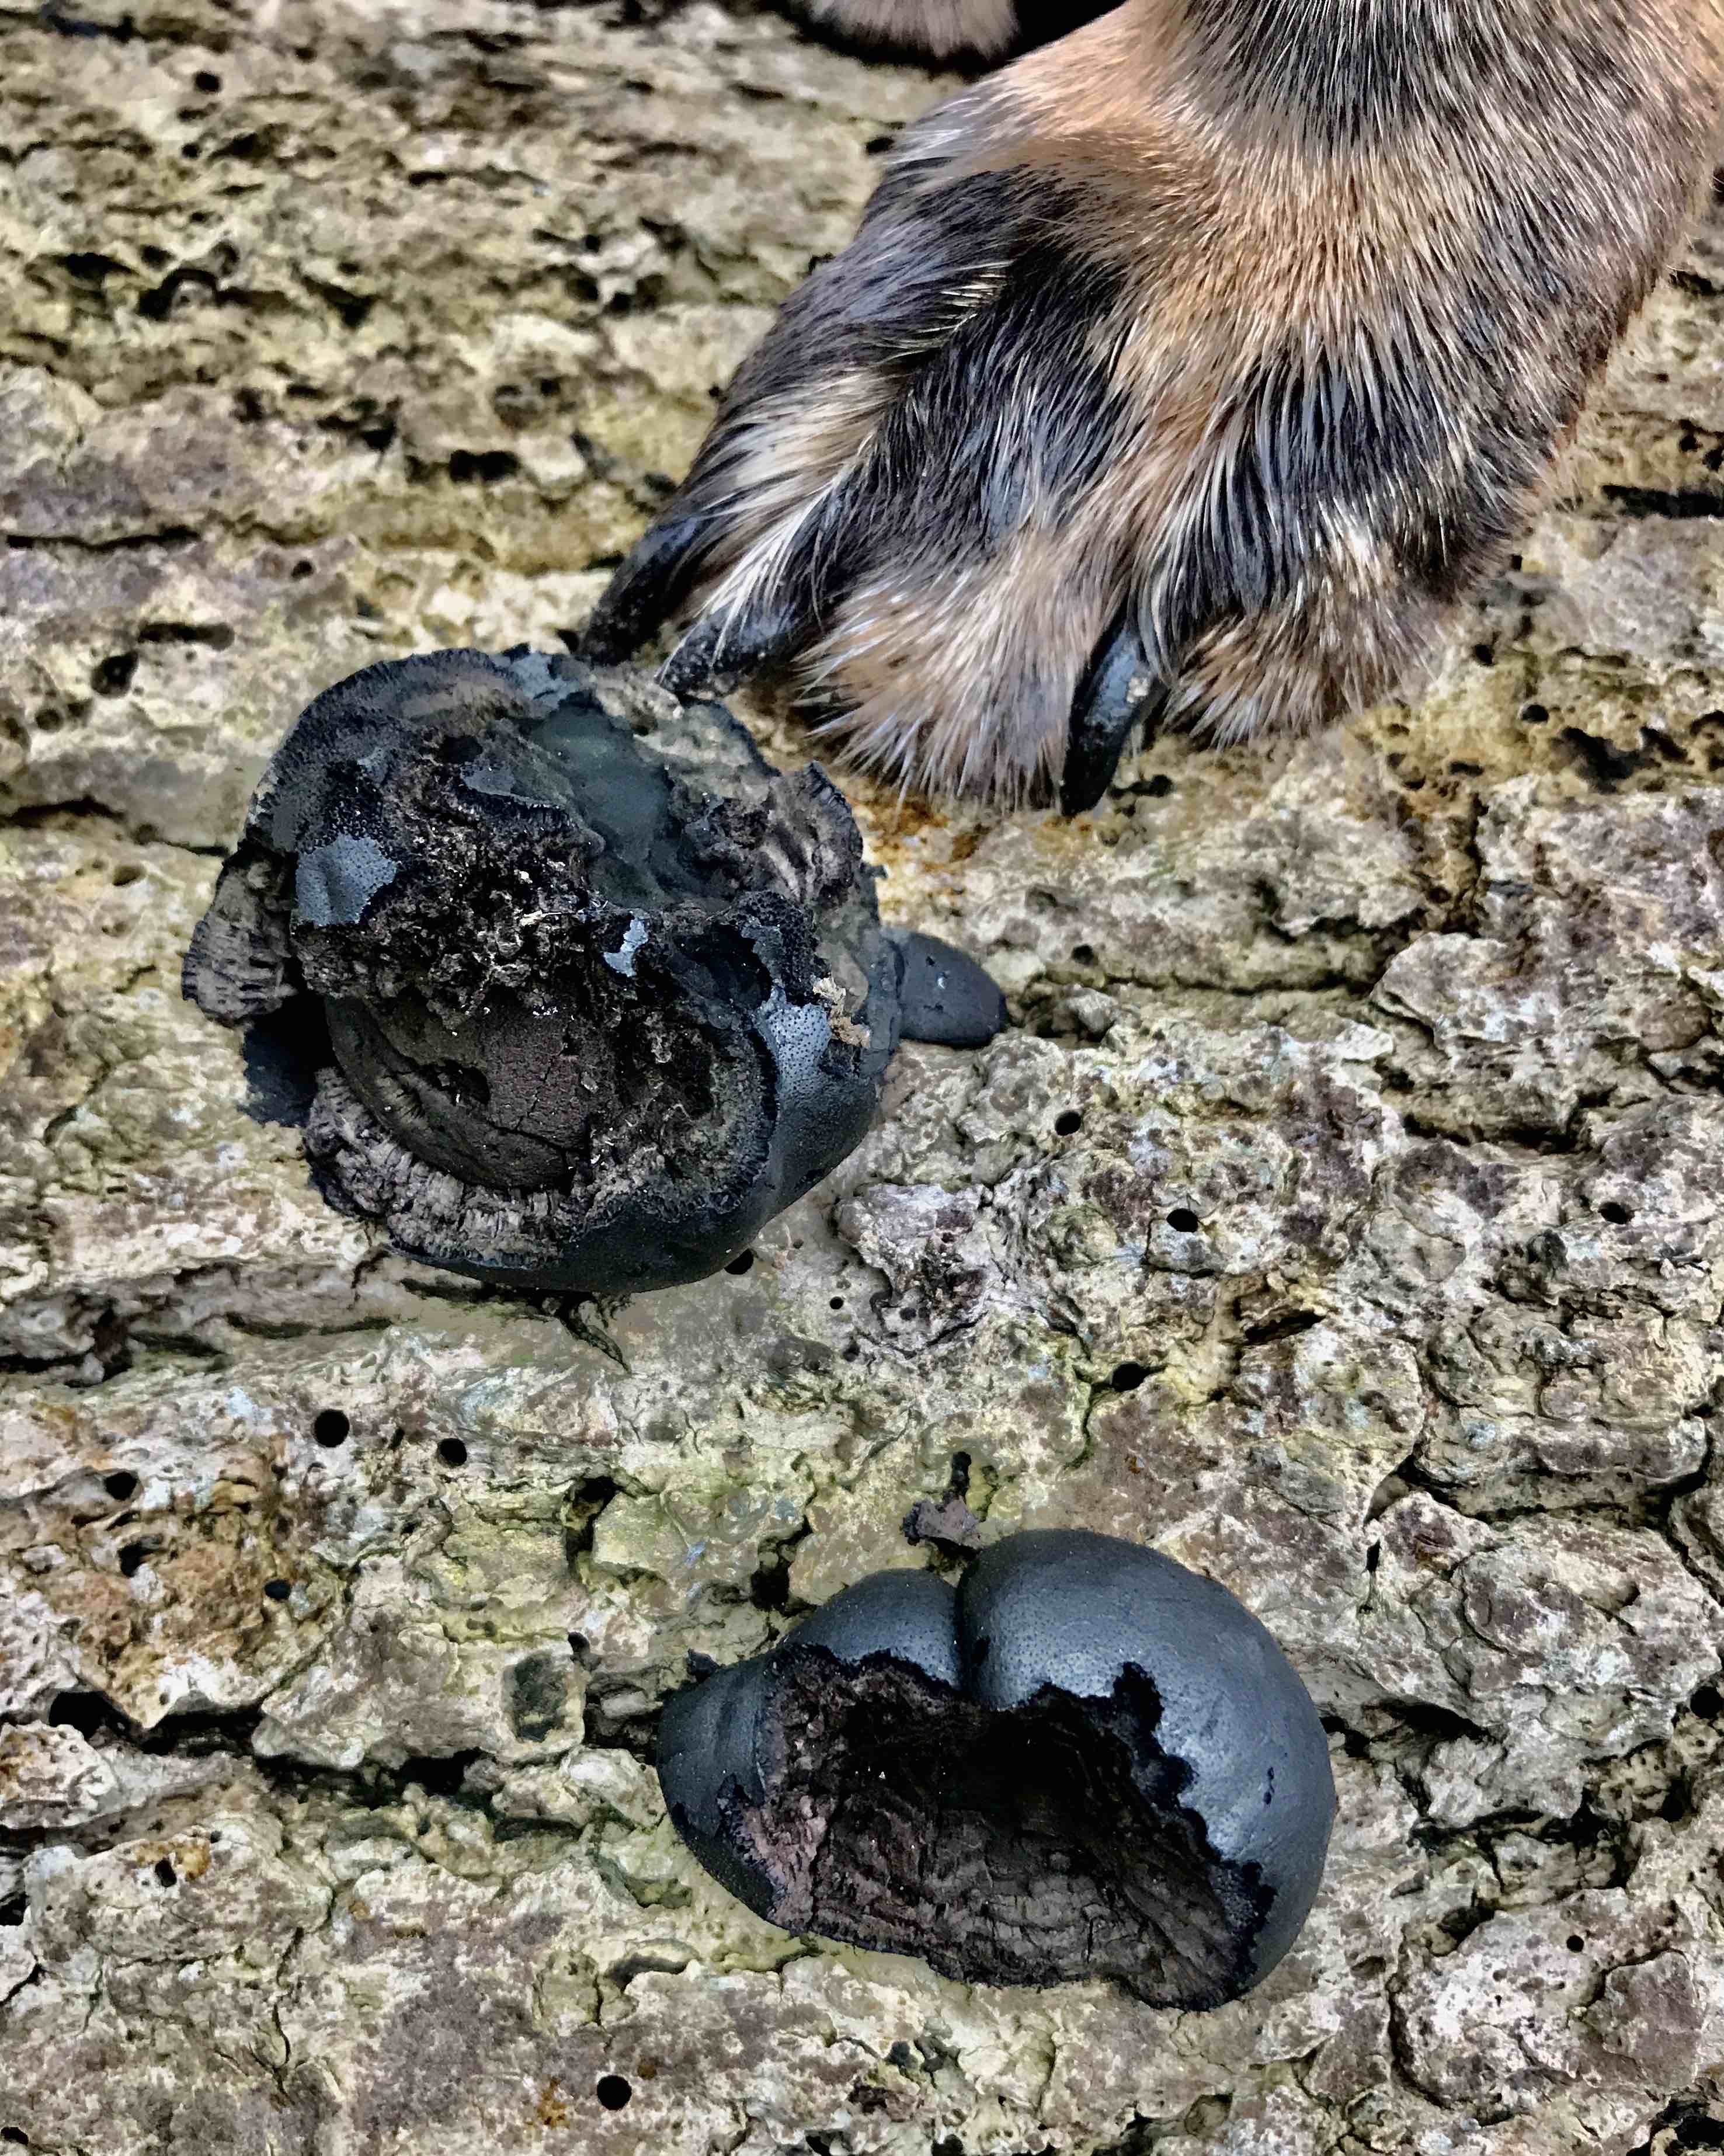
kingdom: Fungi
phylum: Ascomycota
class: Sordariomycetes
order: Xylariales
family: Hypoxylaceae
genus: Daldinia
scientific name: Daldinia concentrica
